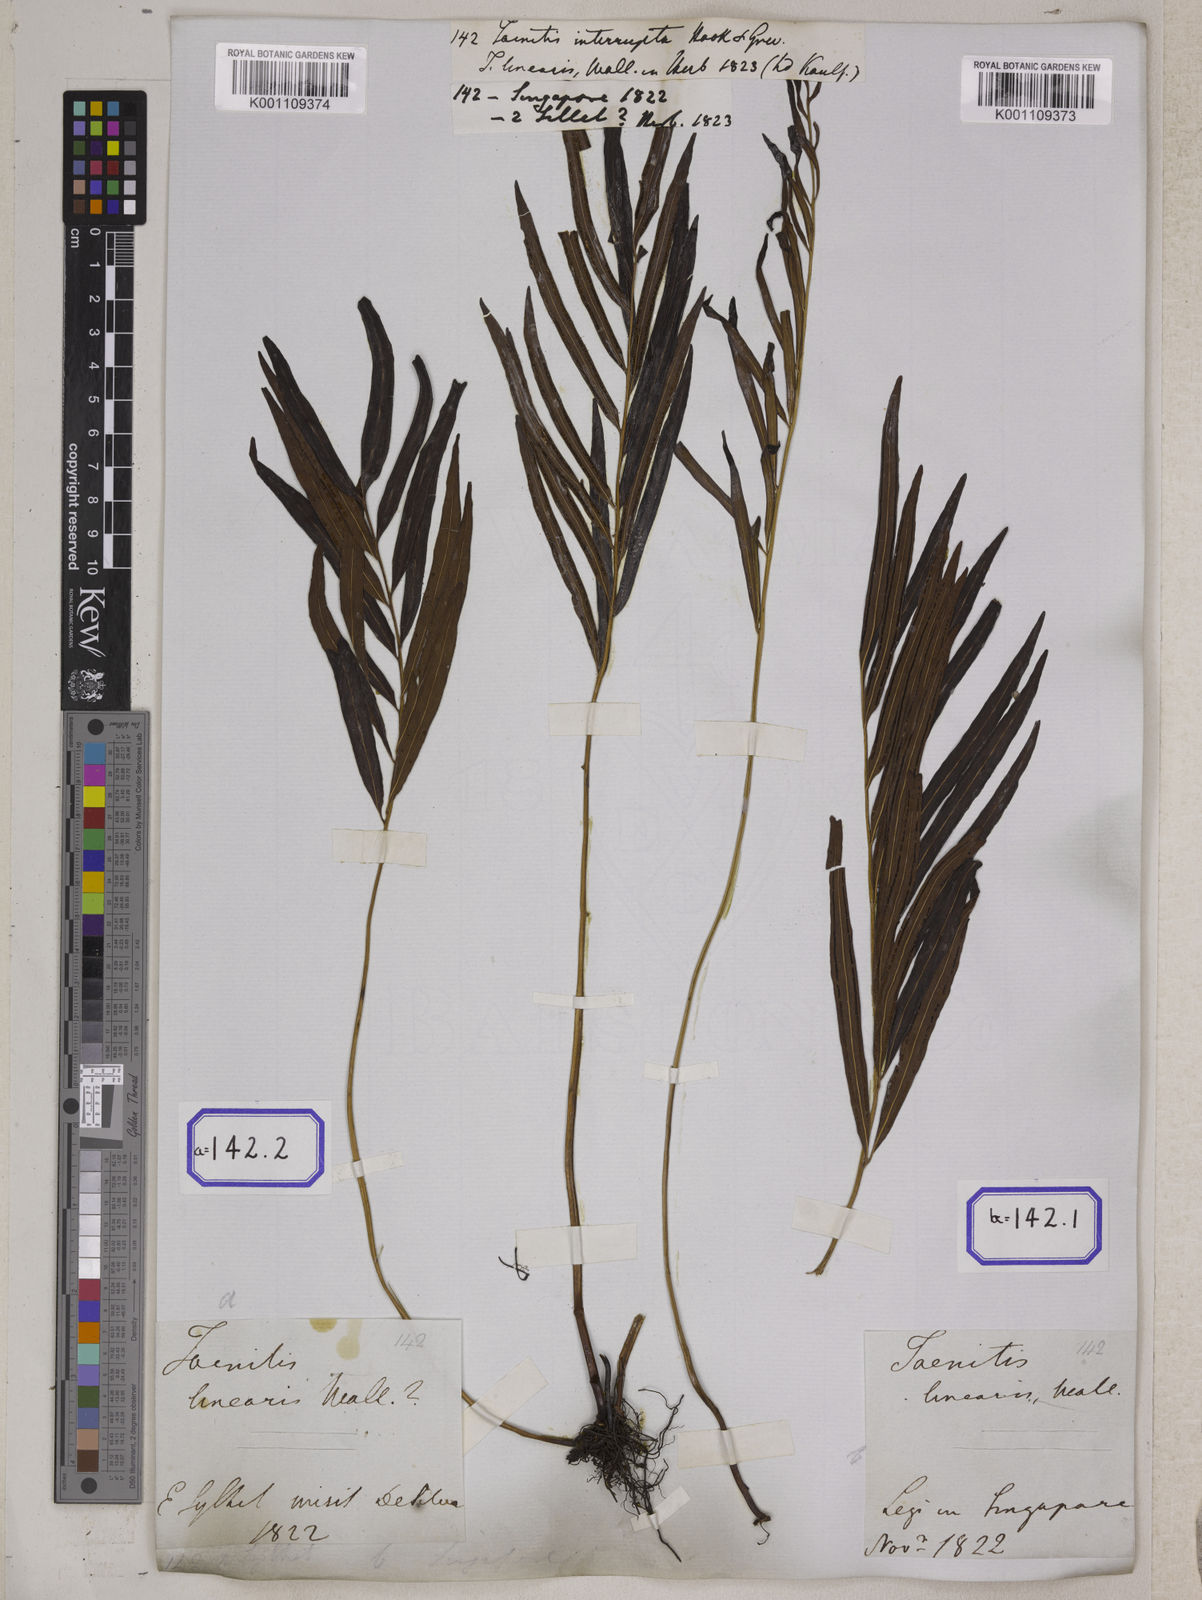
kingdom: Plantae
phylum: Tracheophyta
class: Polypodiopsida
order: Polypodiales
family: Pteridaceae
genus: Taenitis
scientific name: Taenitis blechnoides
